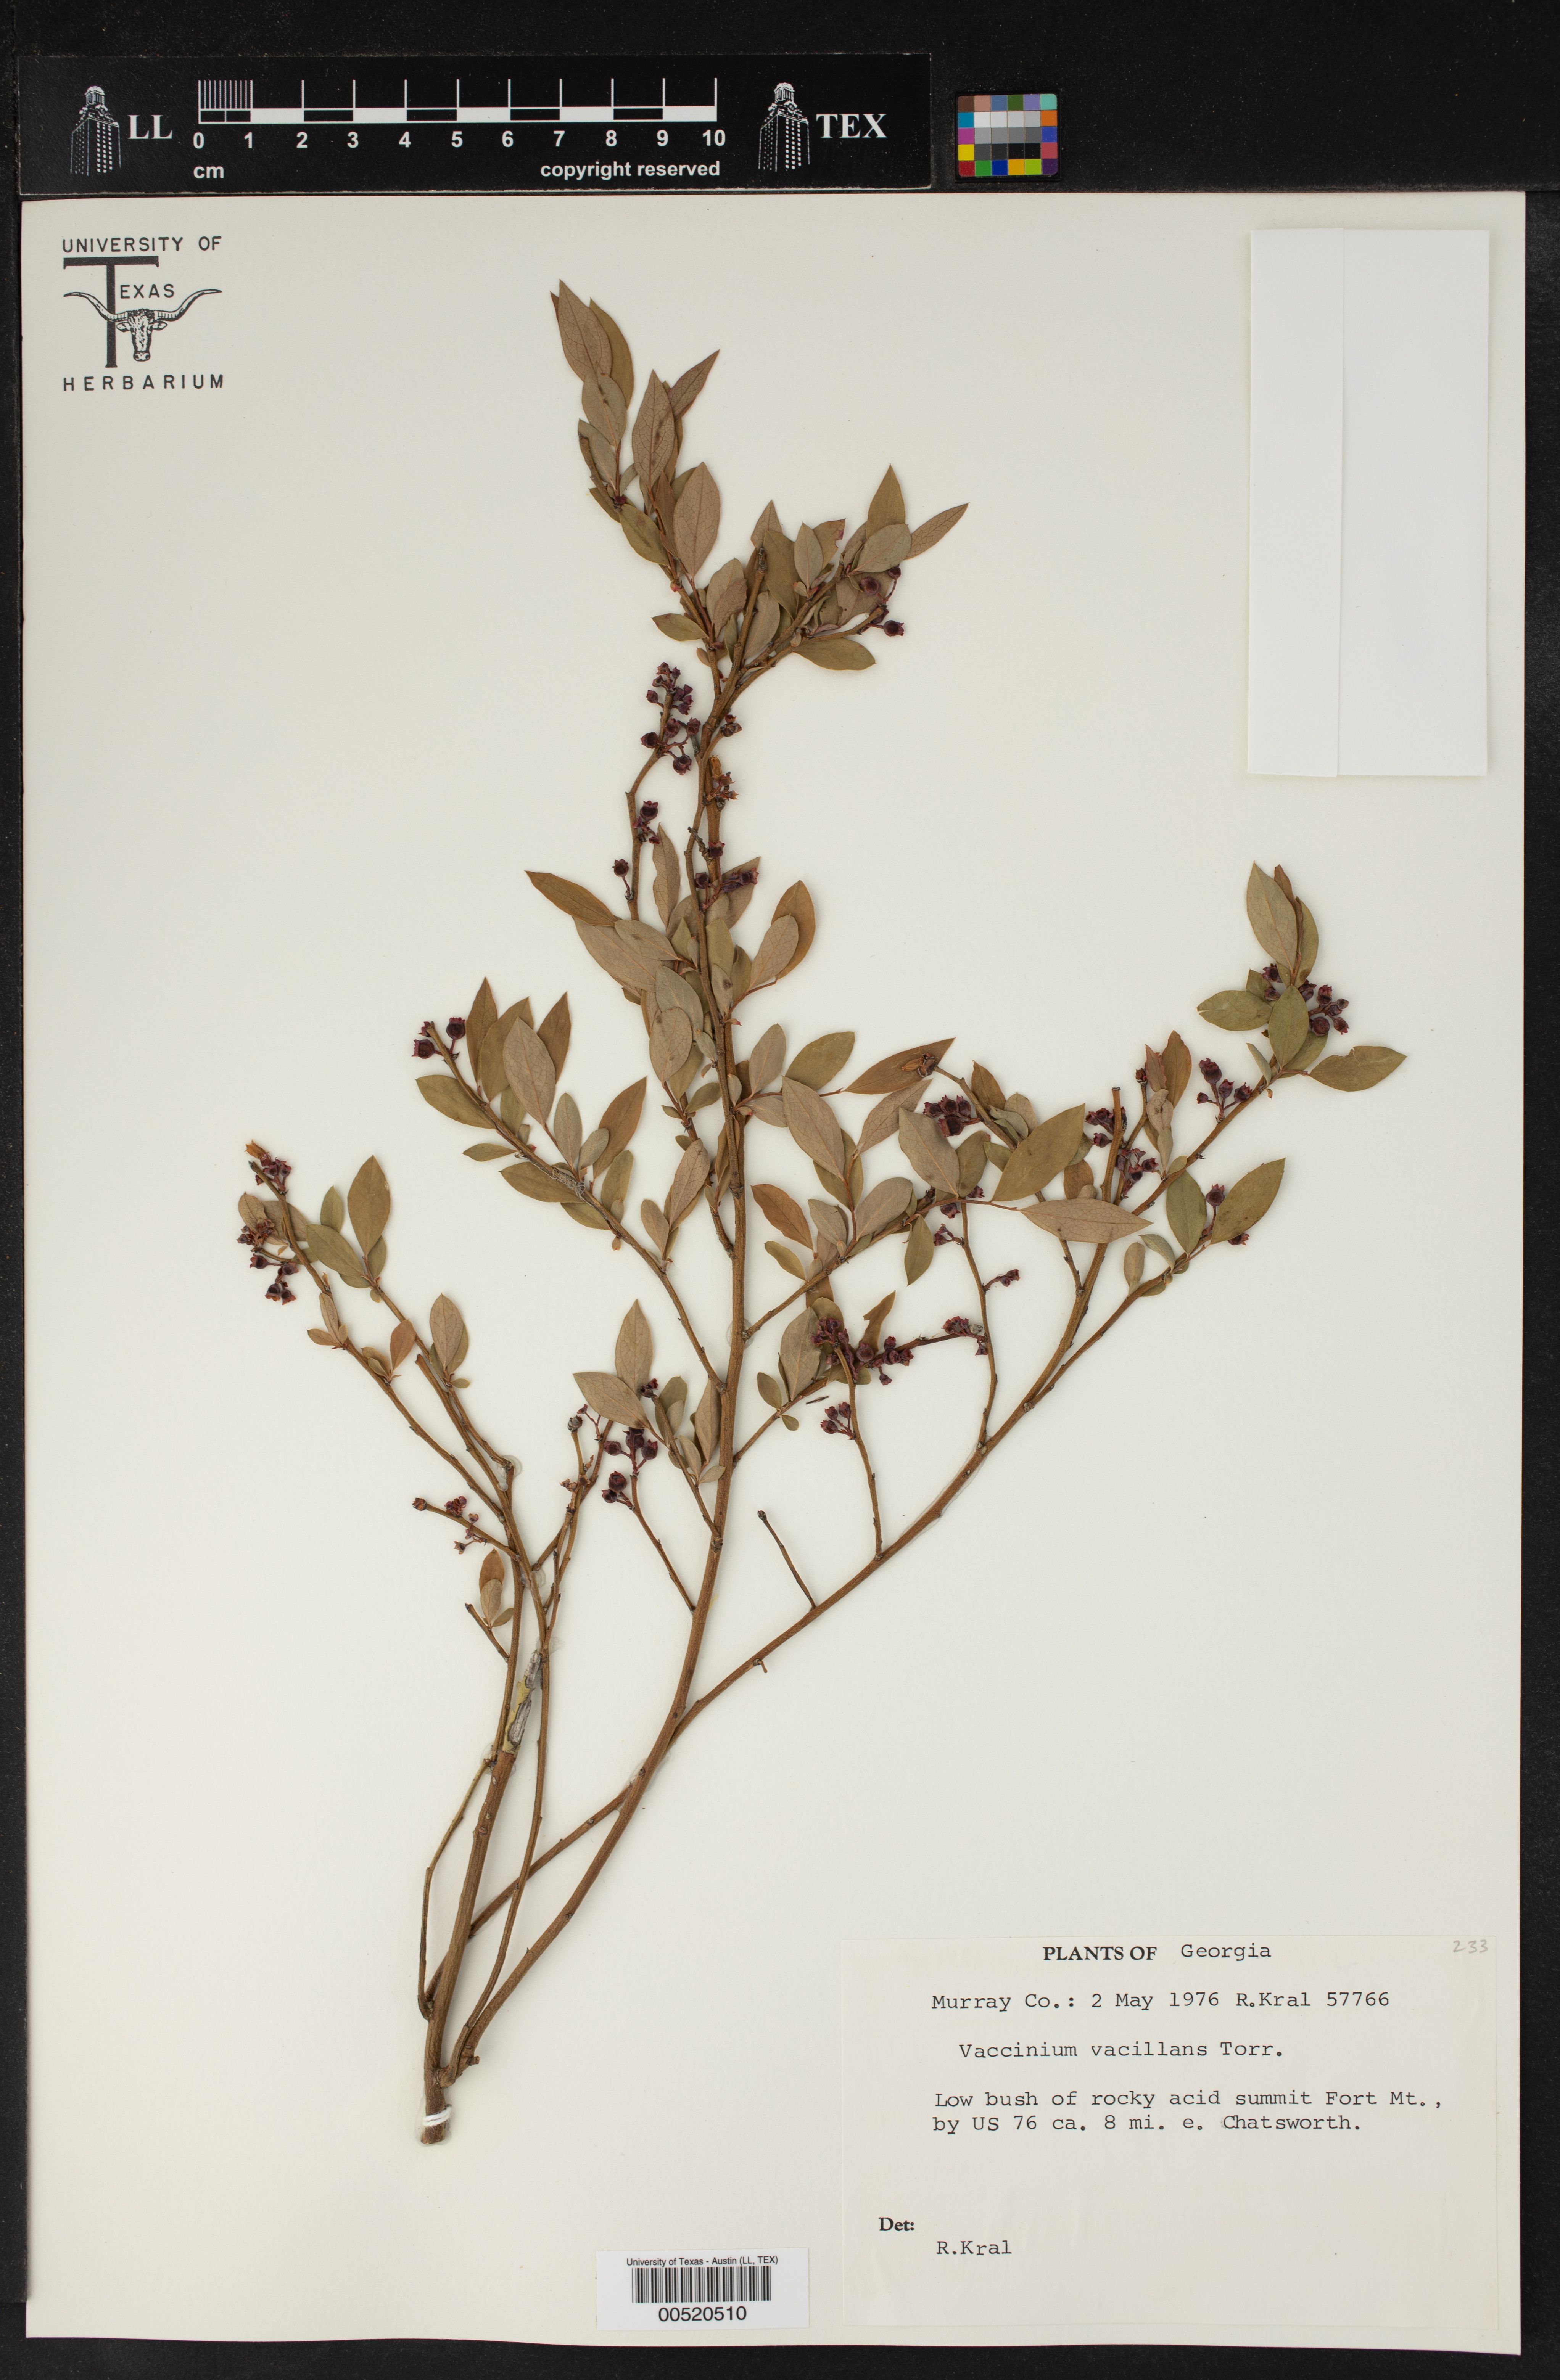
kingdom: Plantae
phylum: Tracheophyta
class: Magnoliopsida
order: Ericales
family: Ericaceae
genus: Vaccinium
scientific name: Vaccinium vacillans
